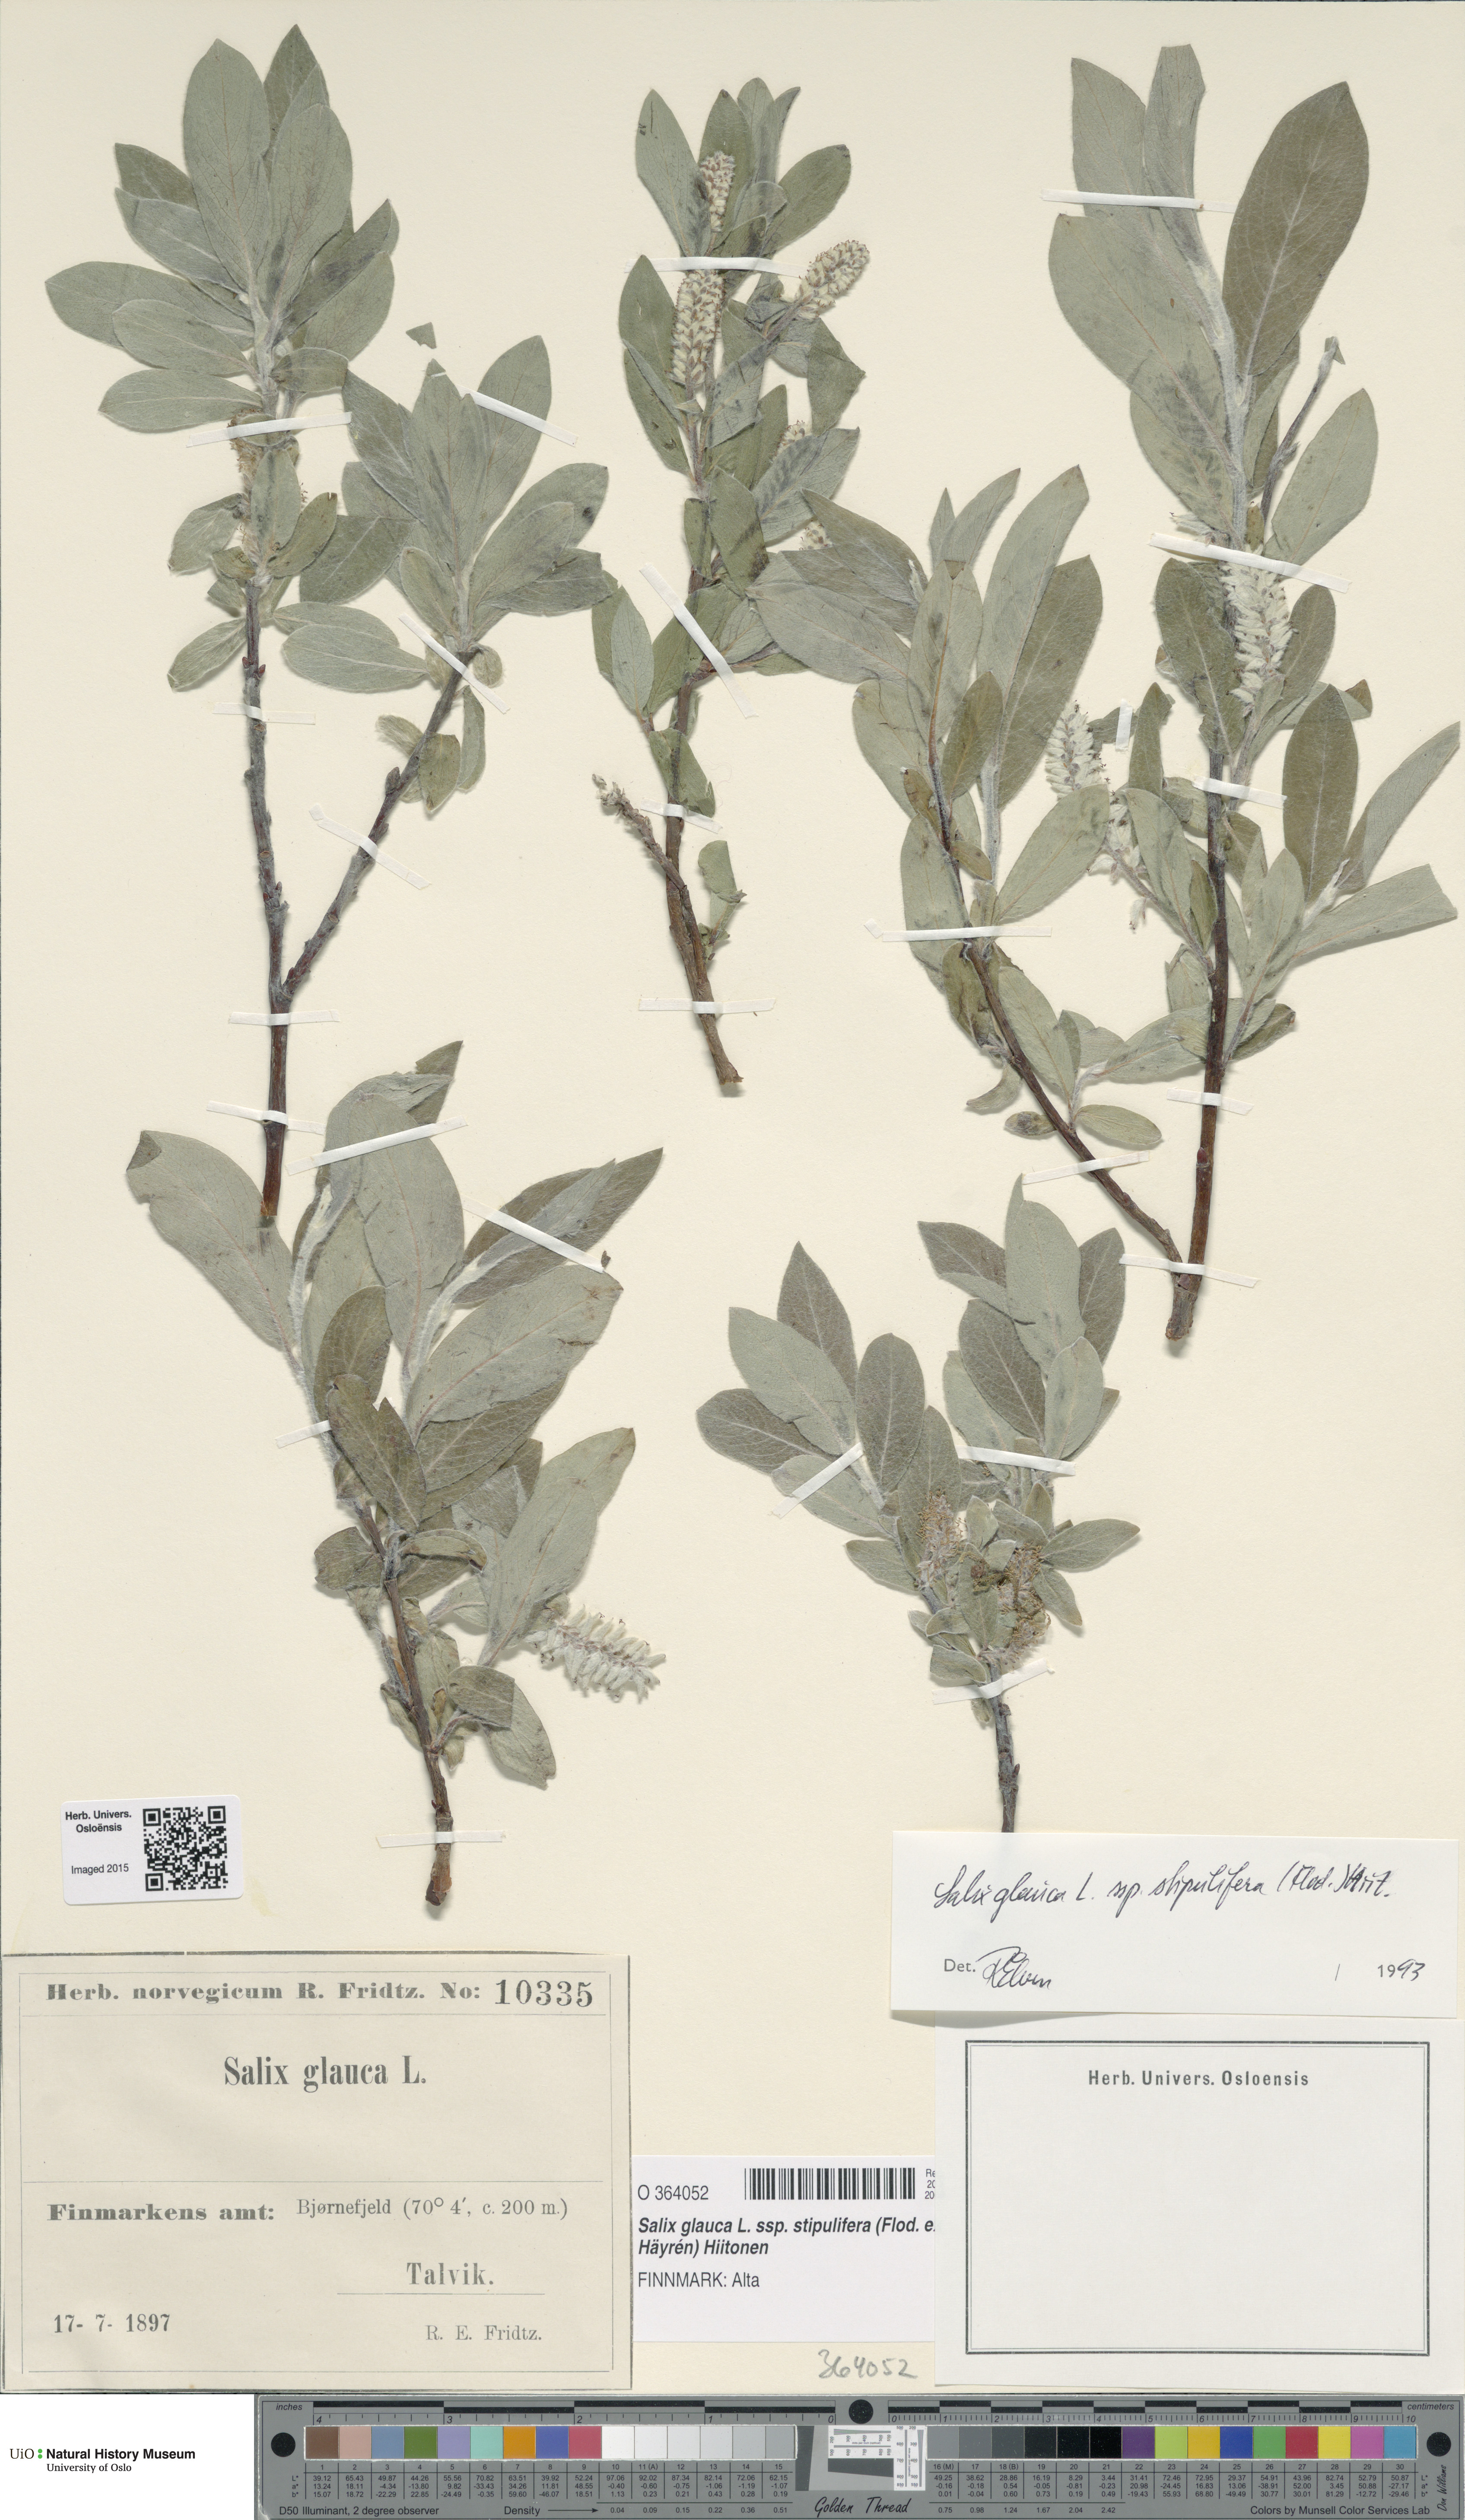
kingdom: Plantae
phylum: Tracheophyta
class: Magnoliopsida
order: Malpighiales
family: Salicaceae
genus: Salix
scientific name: Salix glauca
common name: Glaucous willow
